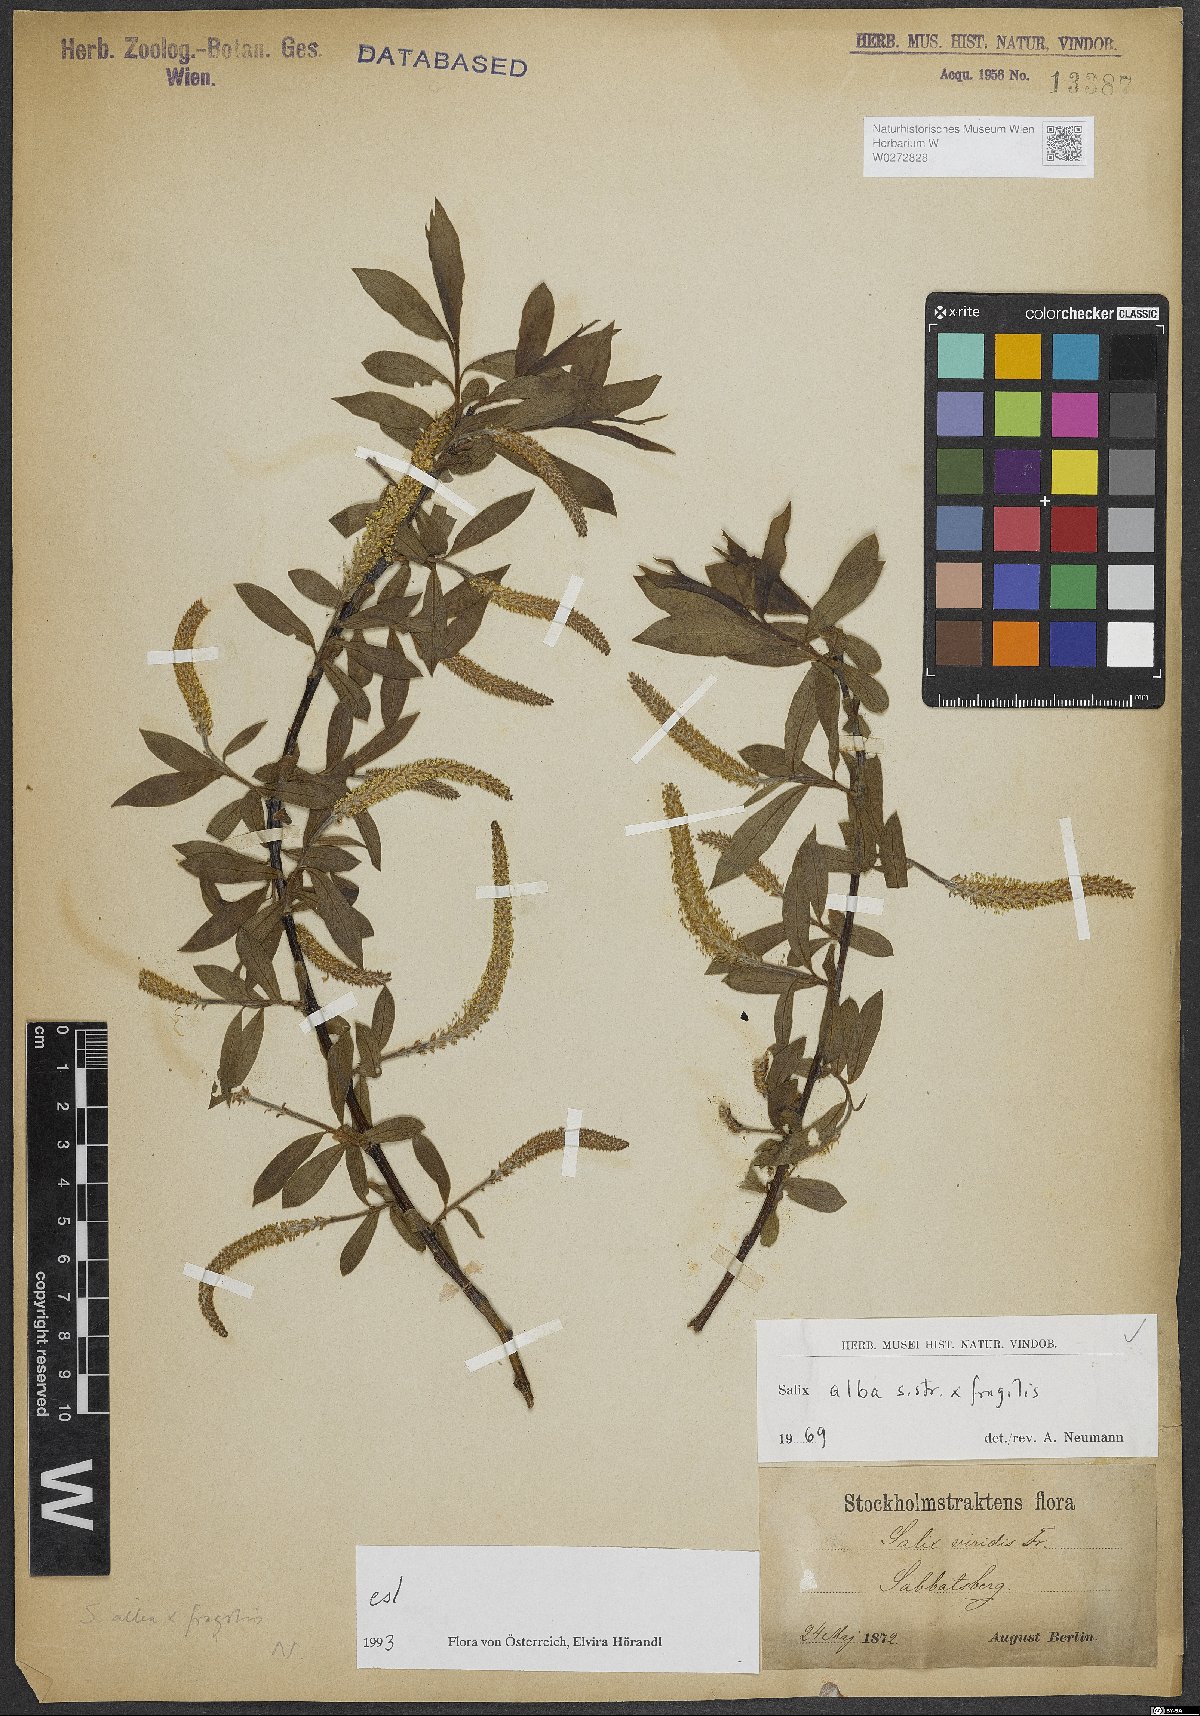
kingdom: Plantae
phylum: Tracheophyta
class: Magnoliopsida
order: Malpighiales
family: Salicaceae
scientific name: Salicaceae
